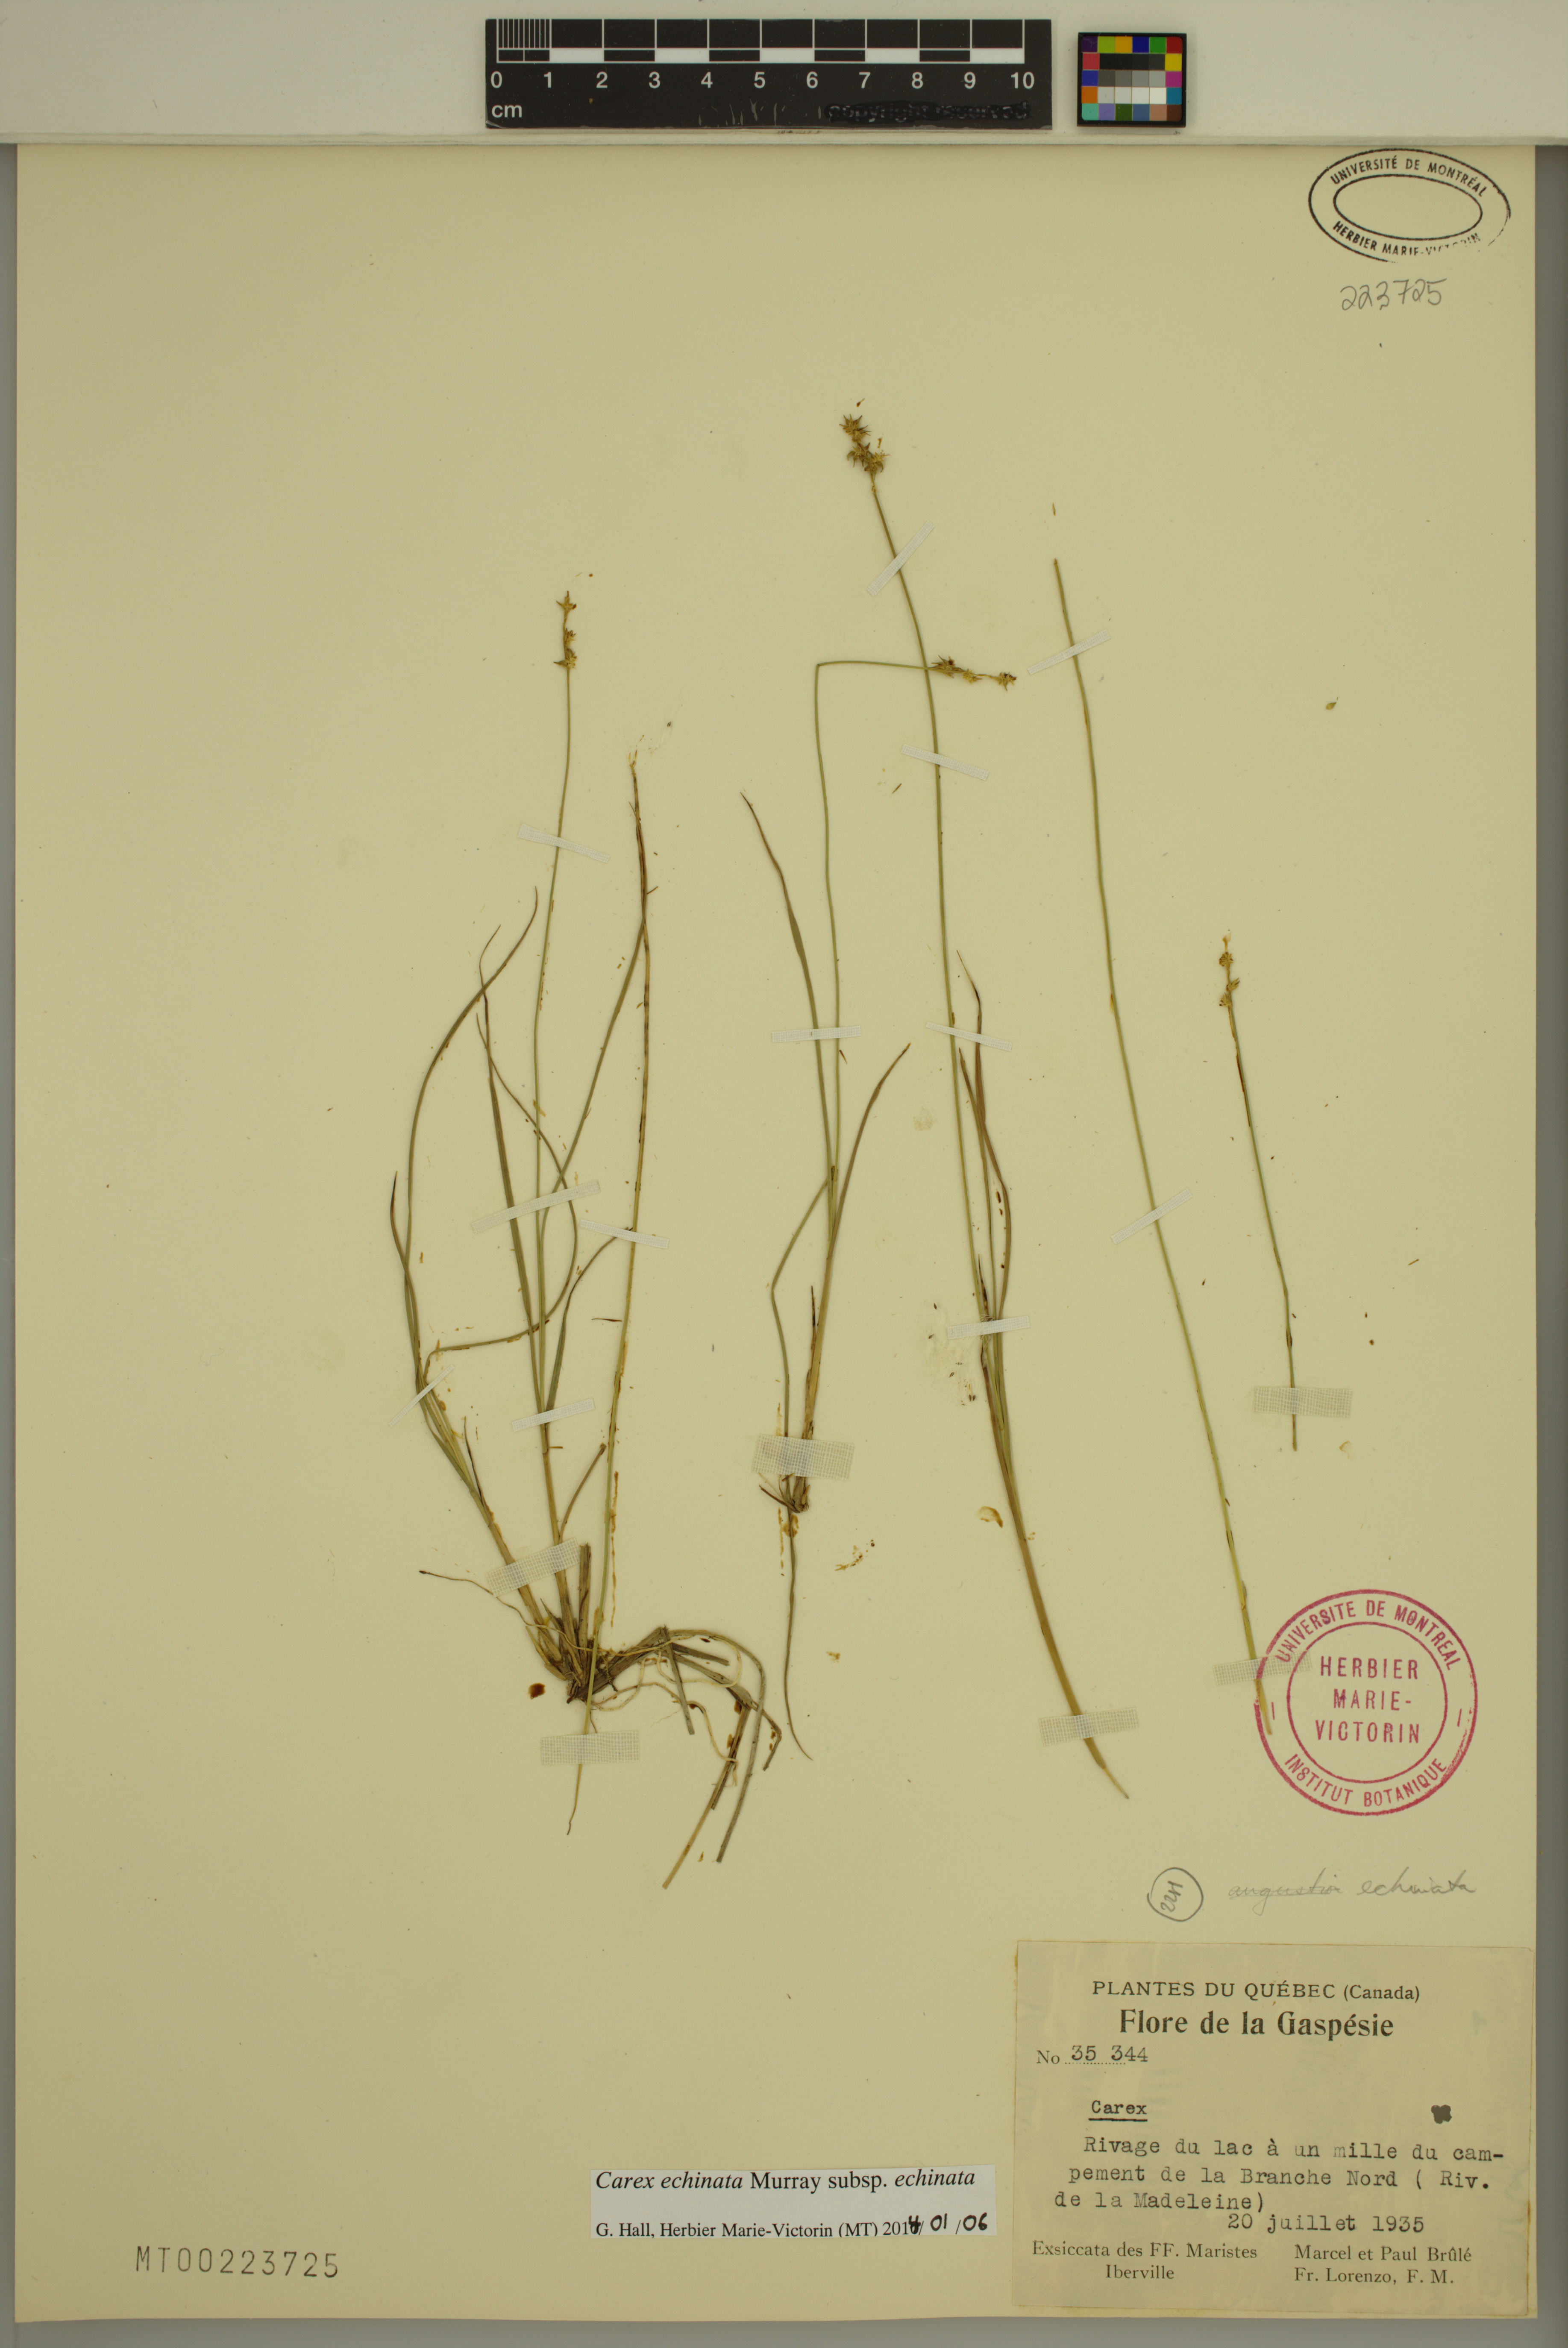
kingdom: Plantae
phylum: Tracheophyta
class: Liliopsida
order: Poales
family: Cyperaceae
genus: Carex
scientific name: Carex echinata
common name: Star sedge
